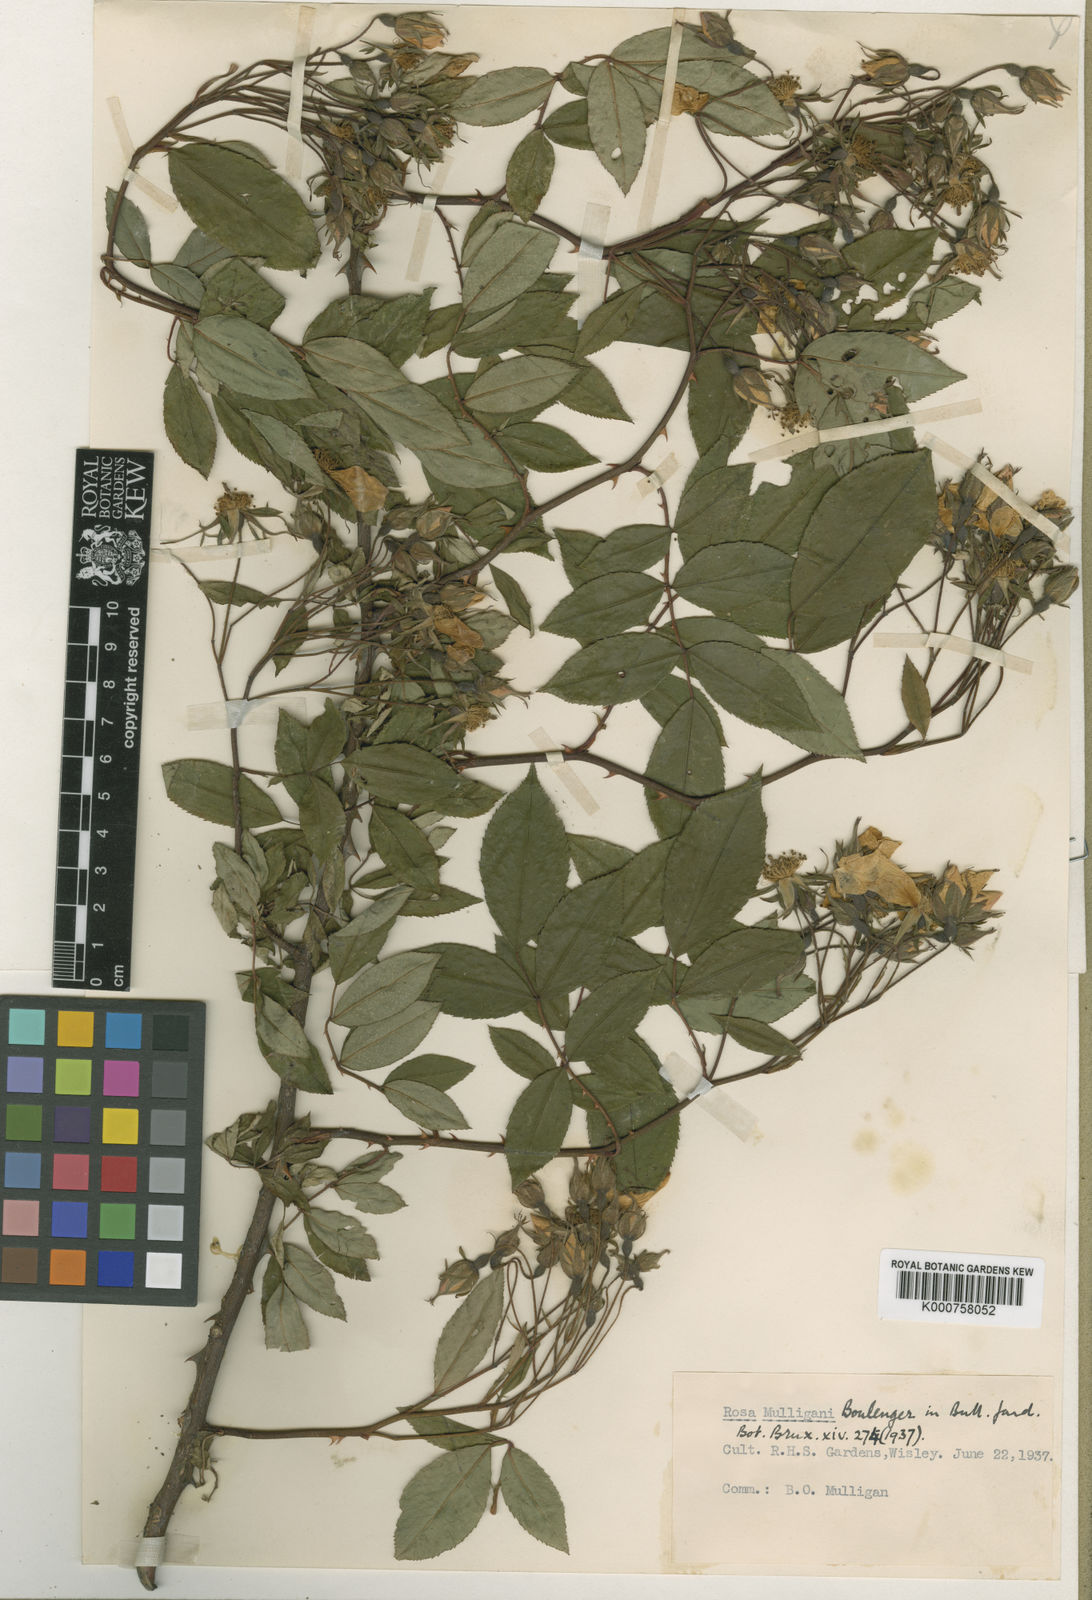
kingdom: Plantae
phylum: Tracheophyta
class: Magnoliopsida
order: Rosales
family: Rosaceae
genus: Rosa
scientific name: Rosa longicuspis
